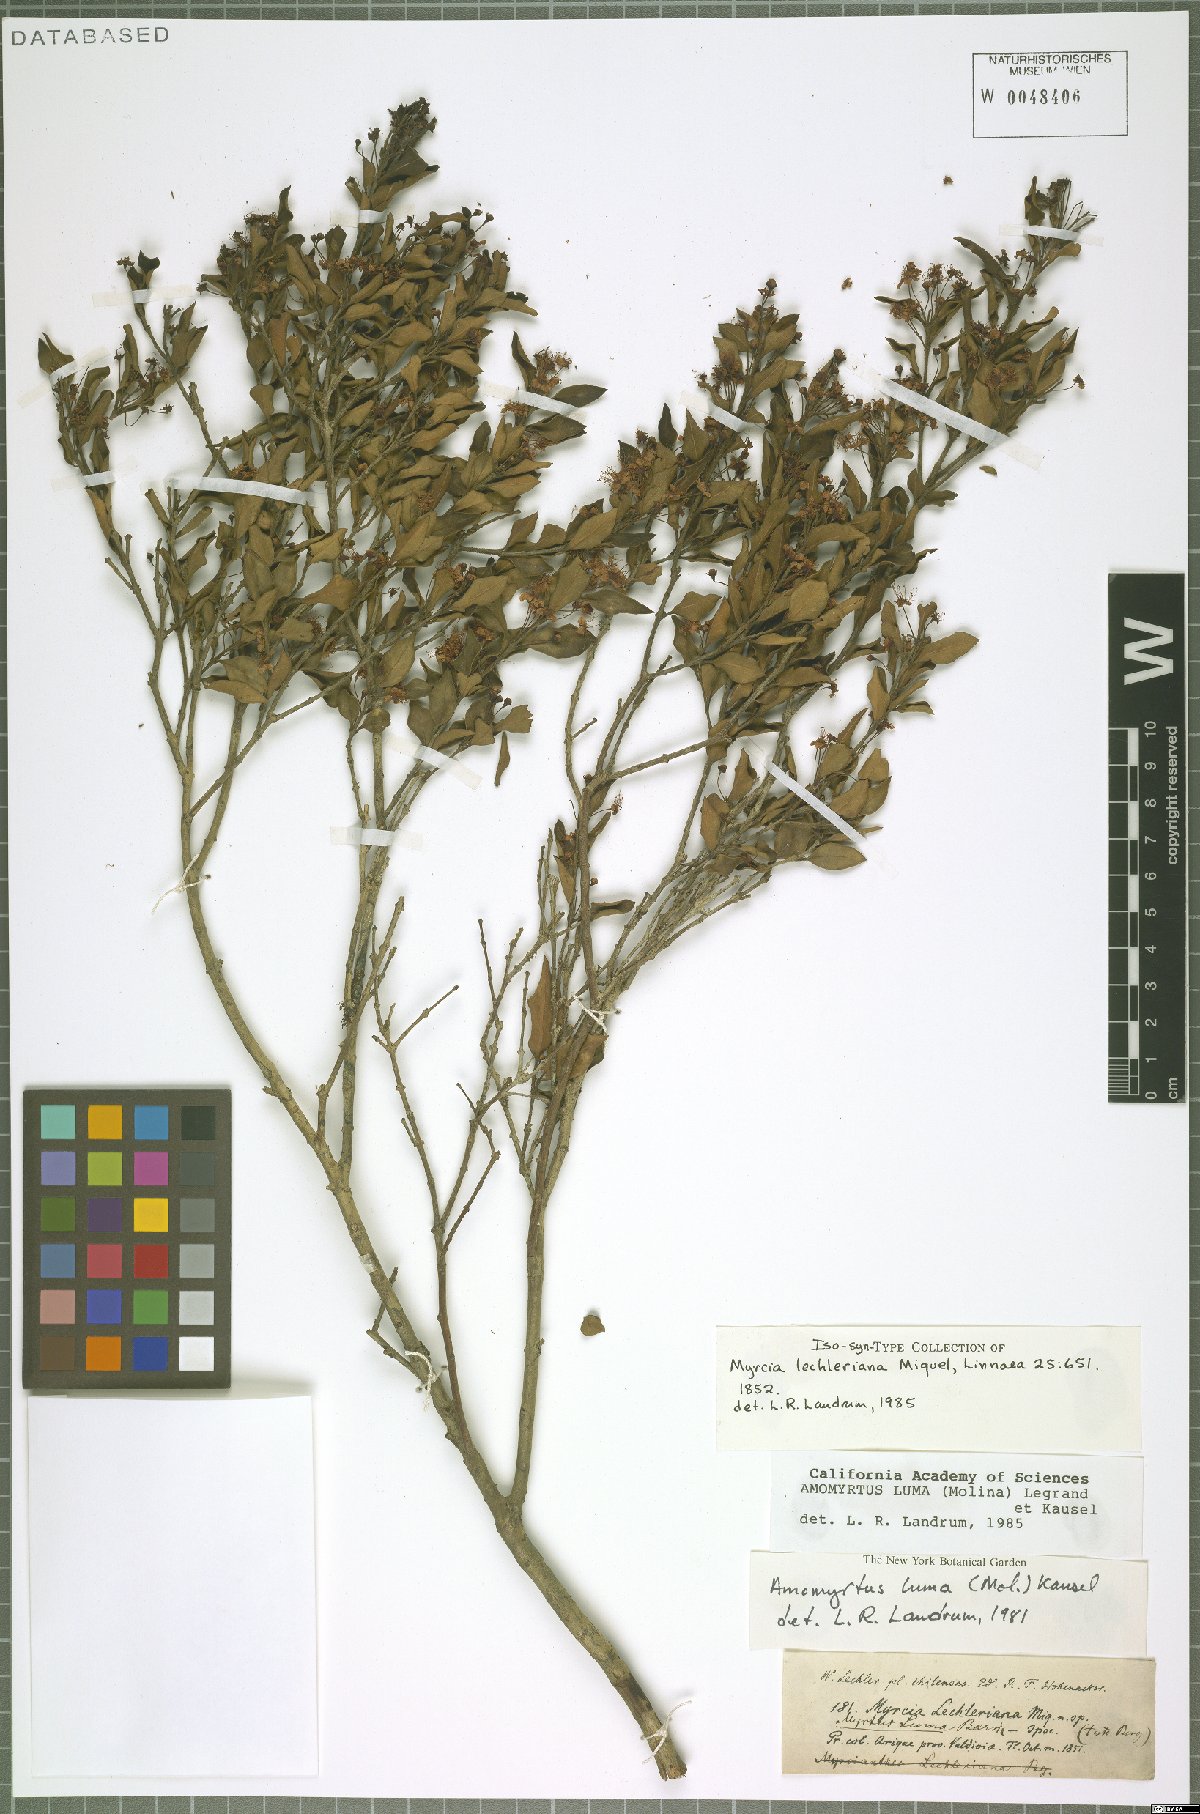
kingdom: Plantae
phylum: Tracheophyta
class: Magnoliopsida
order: Myrtales
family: Myrtaceae
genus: Amomyrtus
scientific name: Amomyrtus luma
